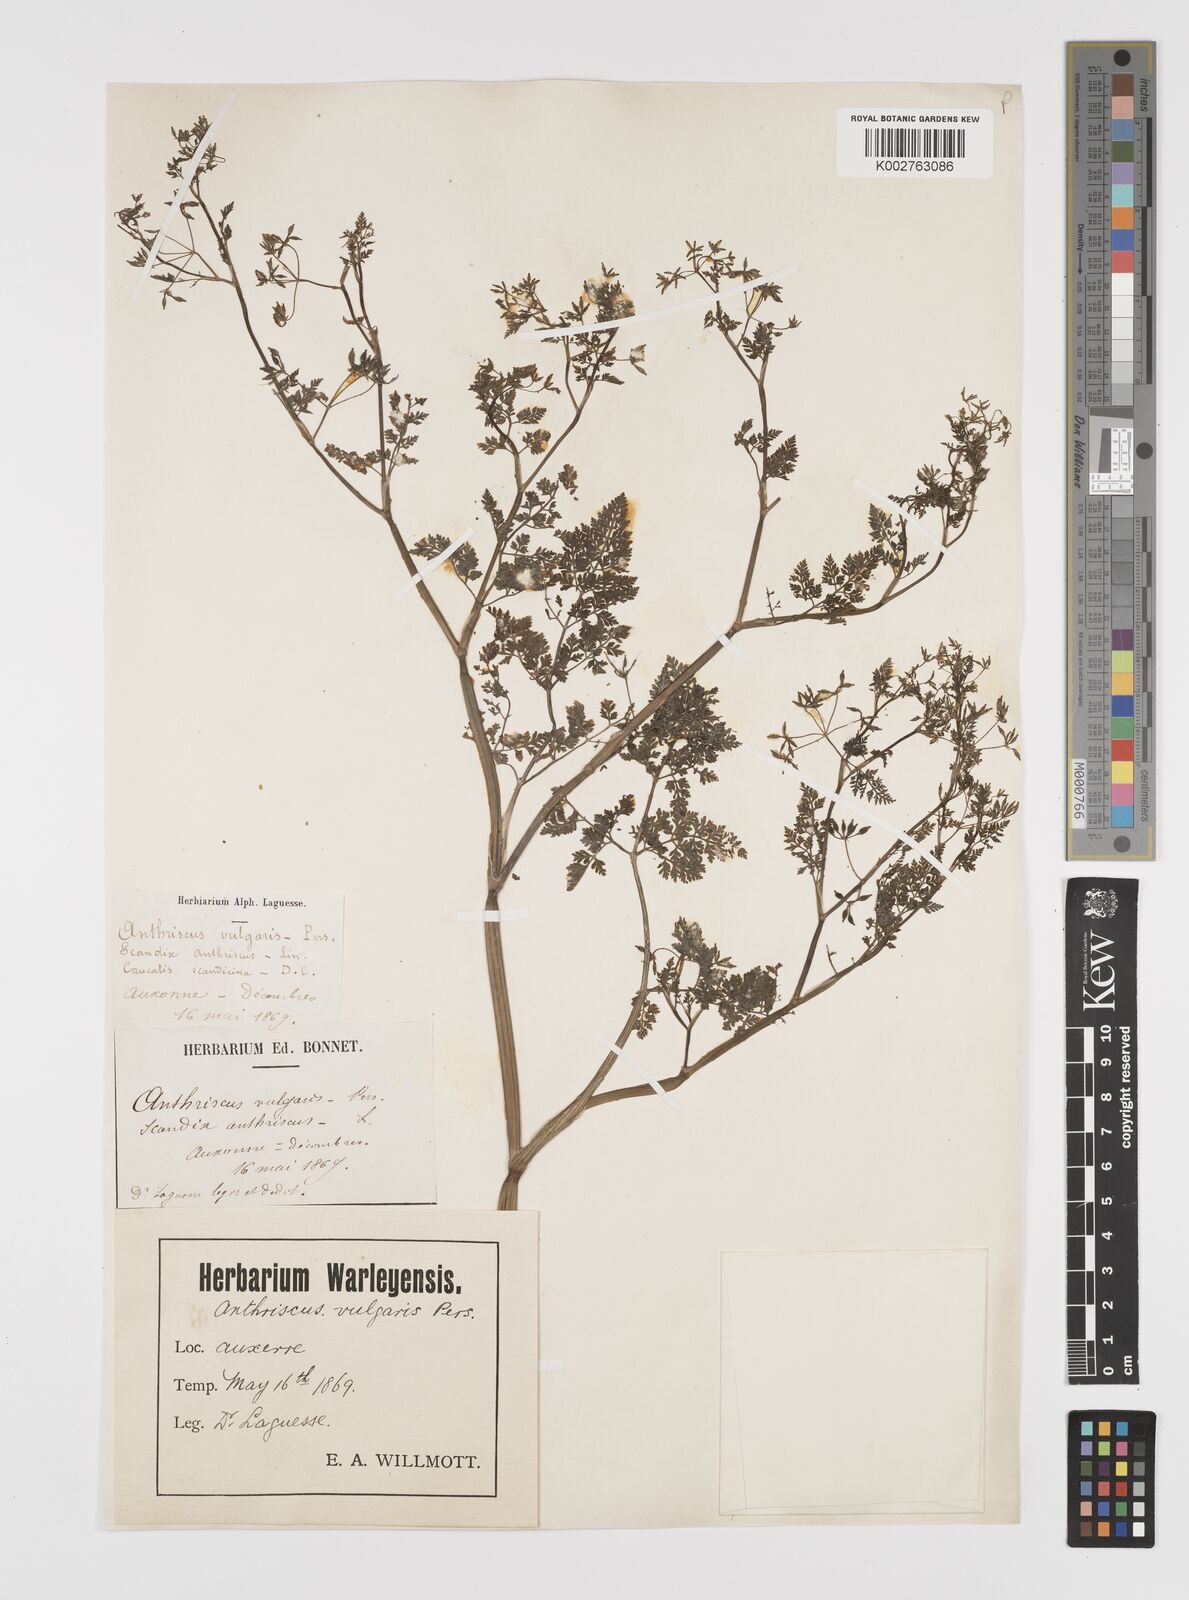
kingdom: Plantae
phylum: Tracheophyta
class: Magnoliopsida
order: Apiales
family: Apiaceae
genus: Anthriscus
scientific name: Anthriscus caucalis
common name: Bur chervil
